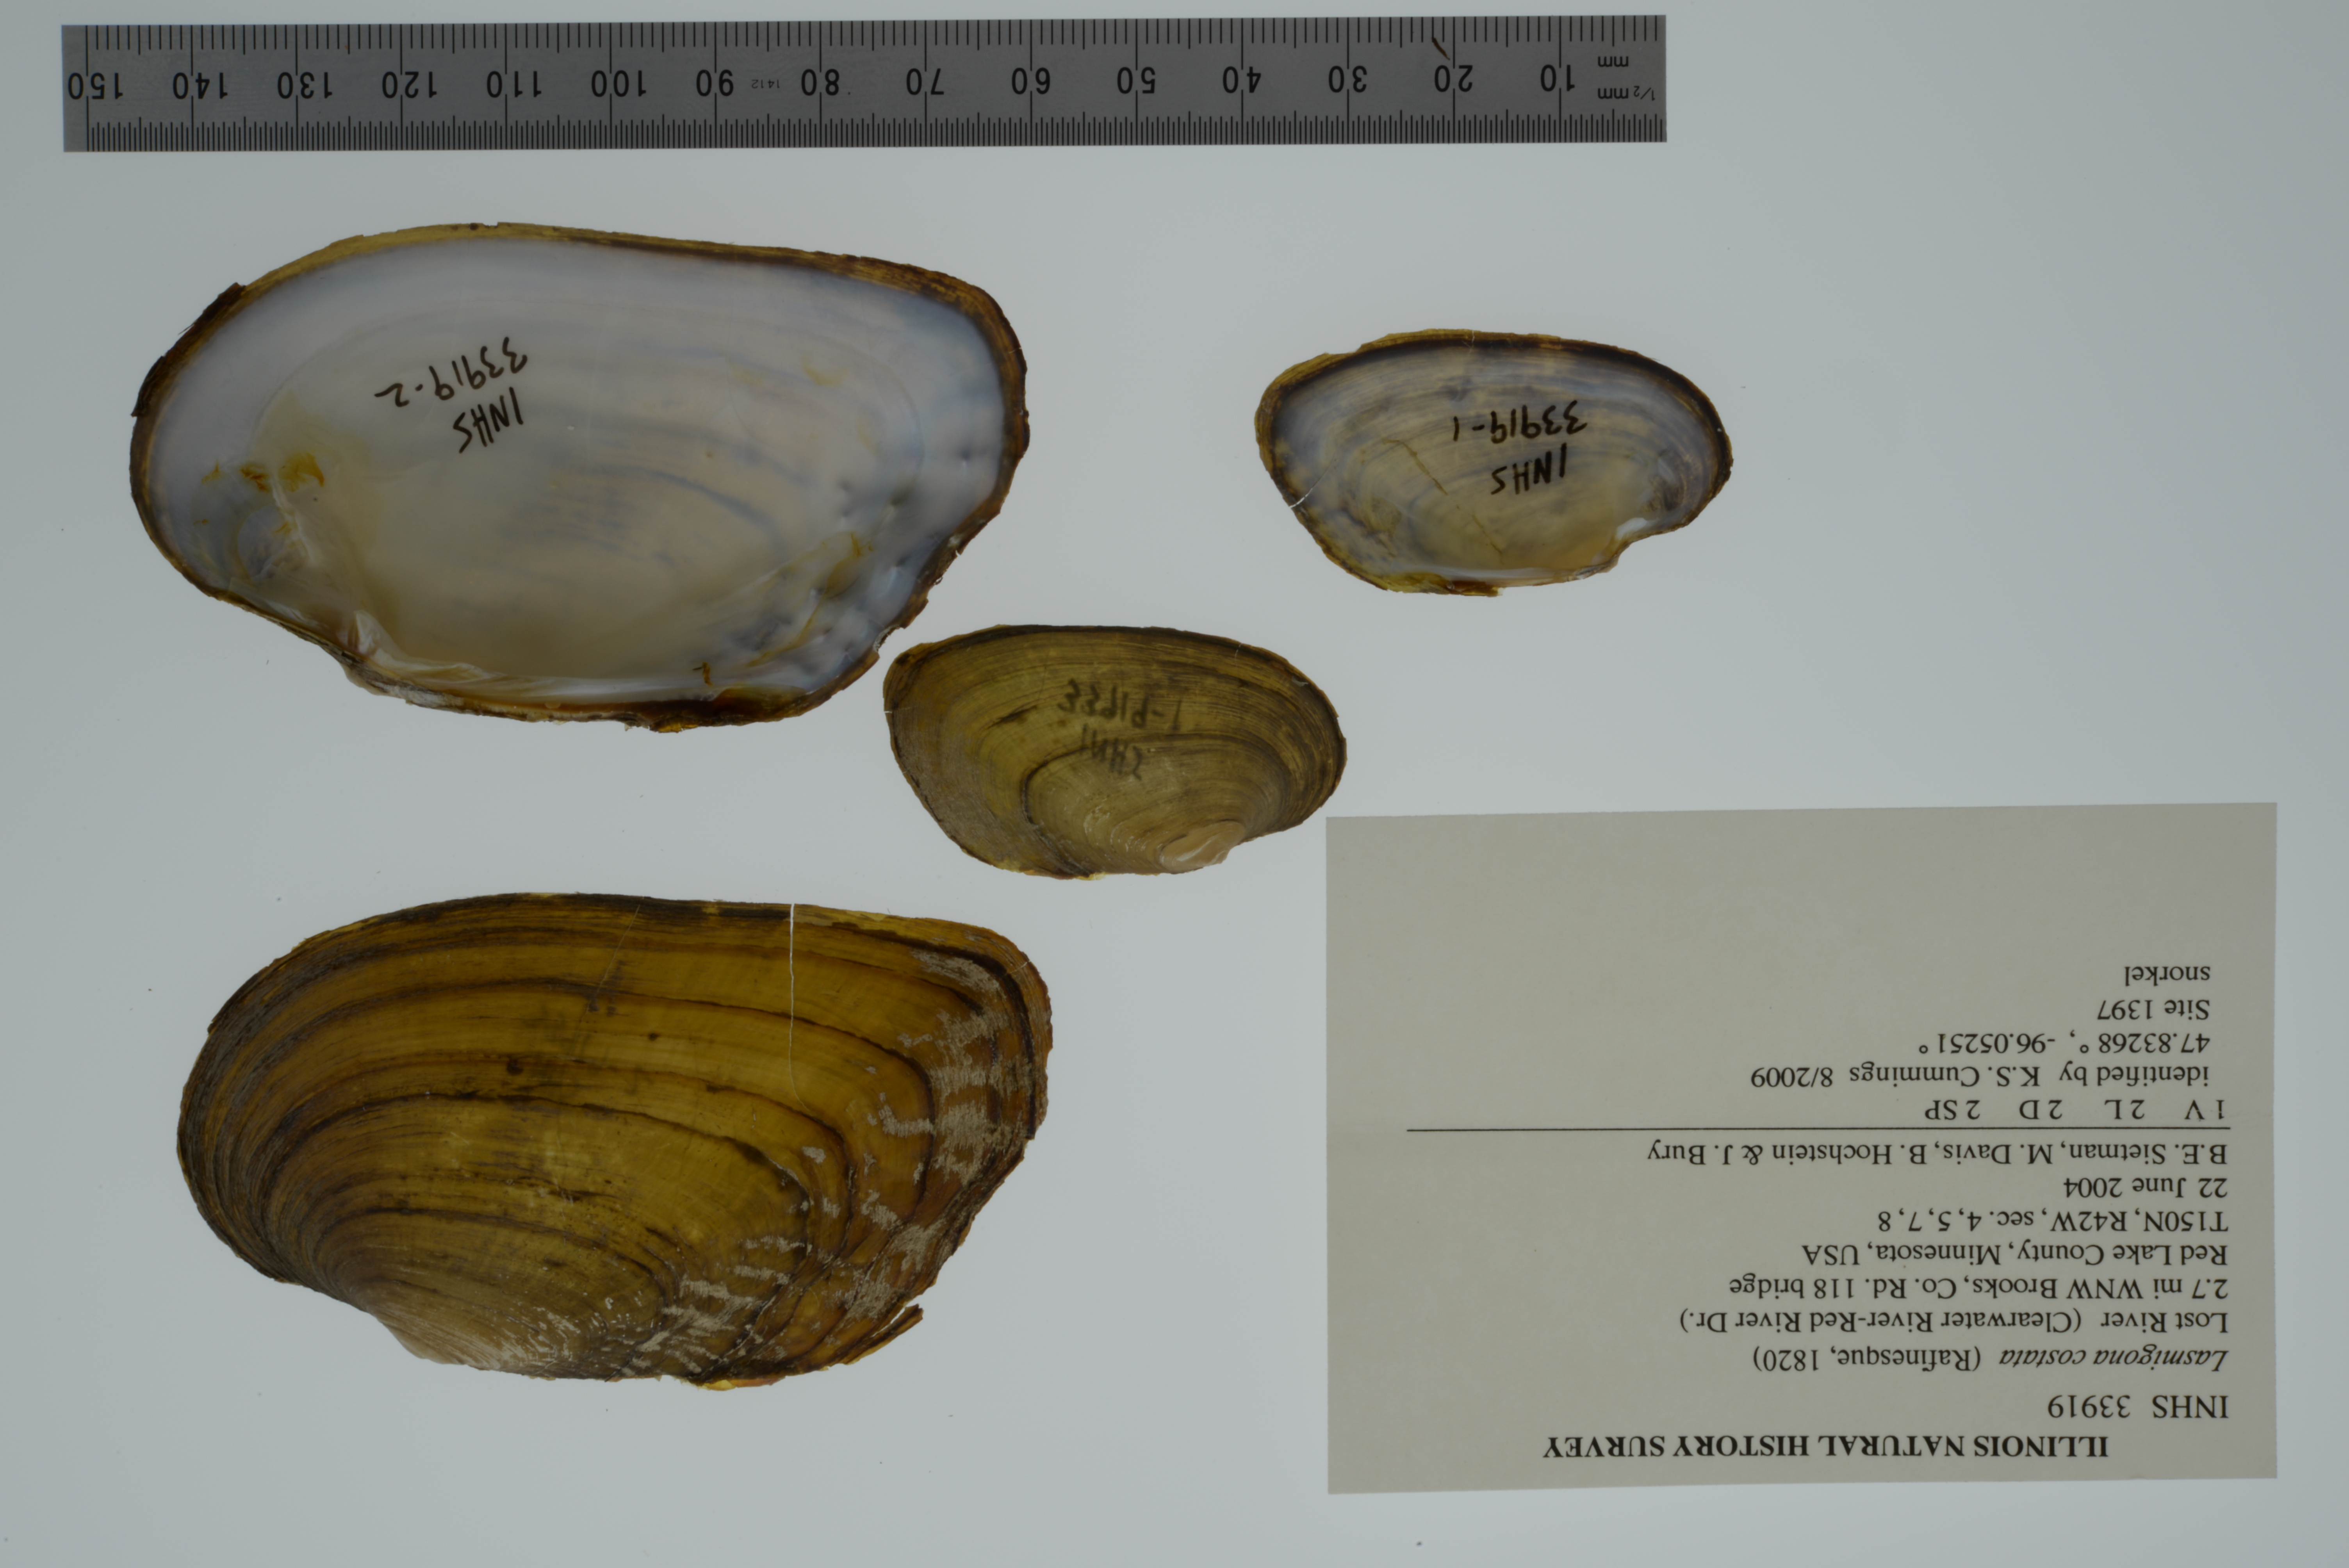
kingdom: Animalia
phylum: Mollusca
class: Bivalvia
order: Unionida
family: Unionidae
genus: Lasmigona
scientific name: Lasmigona costata
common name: Flutedshell
